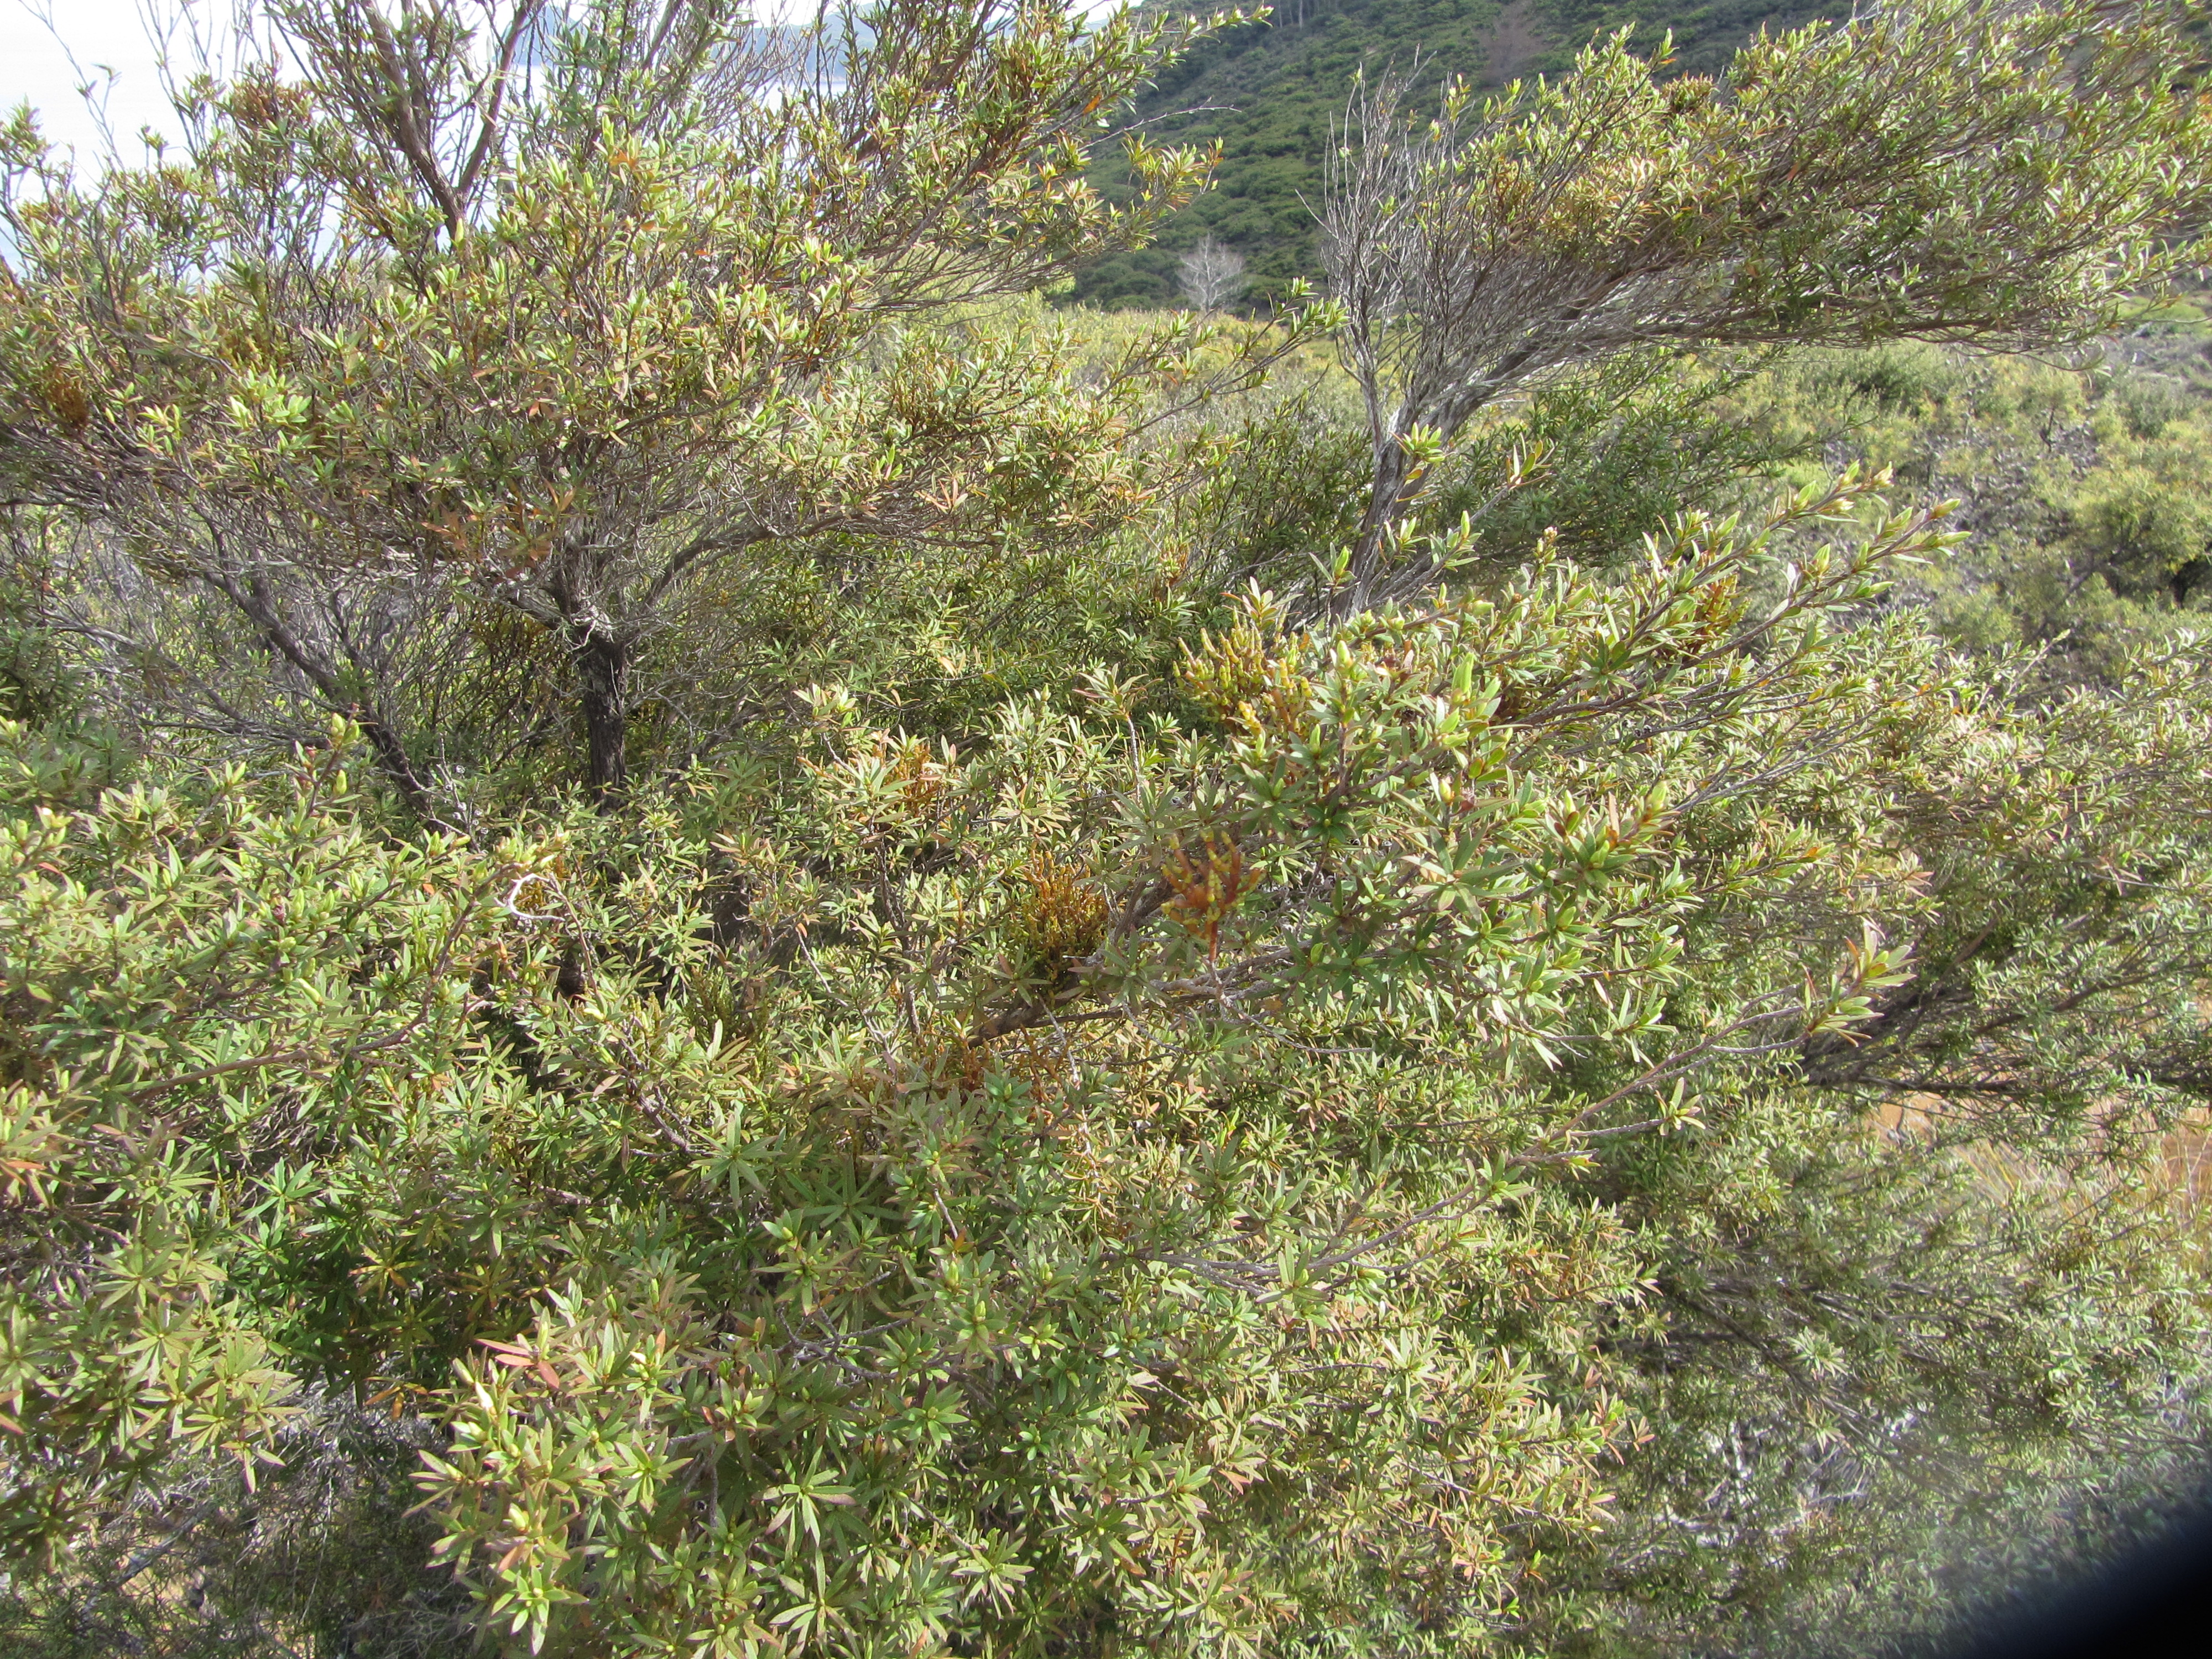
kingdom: Plantae
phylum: Tracheophyta
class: Magnoliopsida
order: Santalales
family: Viscaceae
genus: Korthalsella
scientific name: Korthalsella salicornioides
